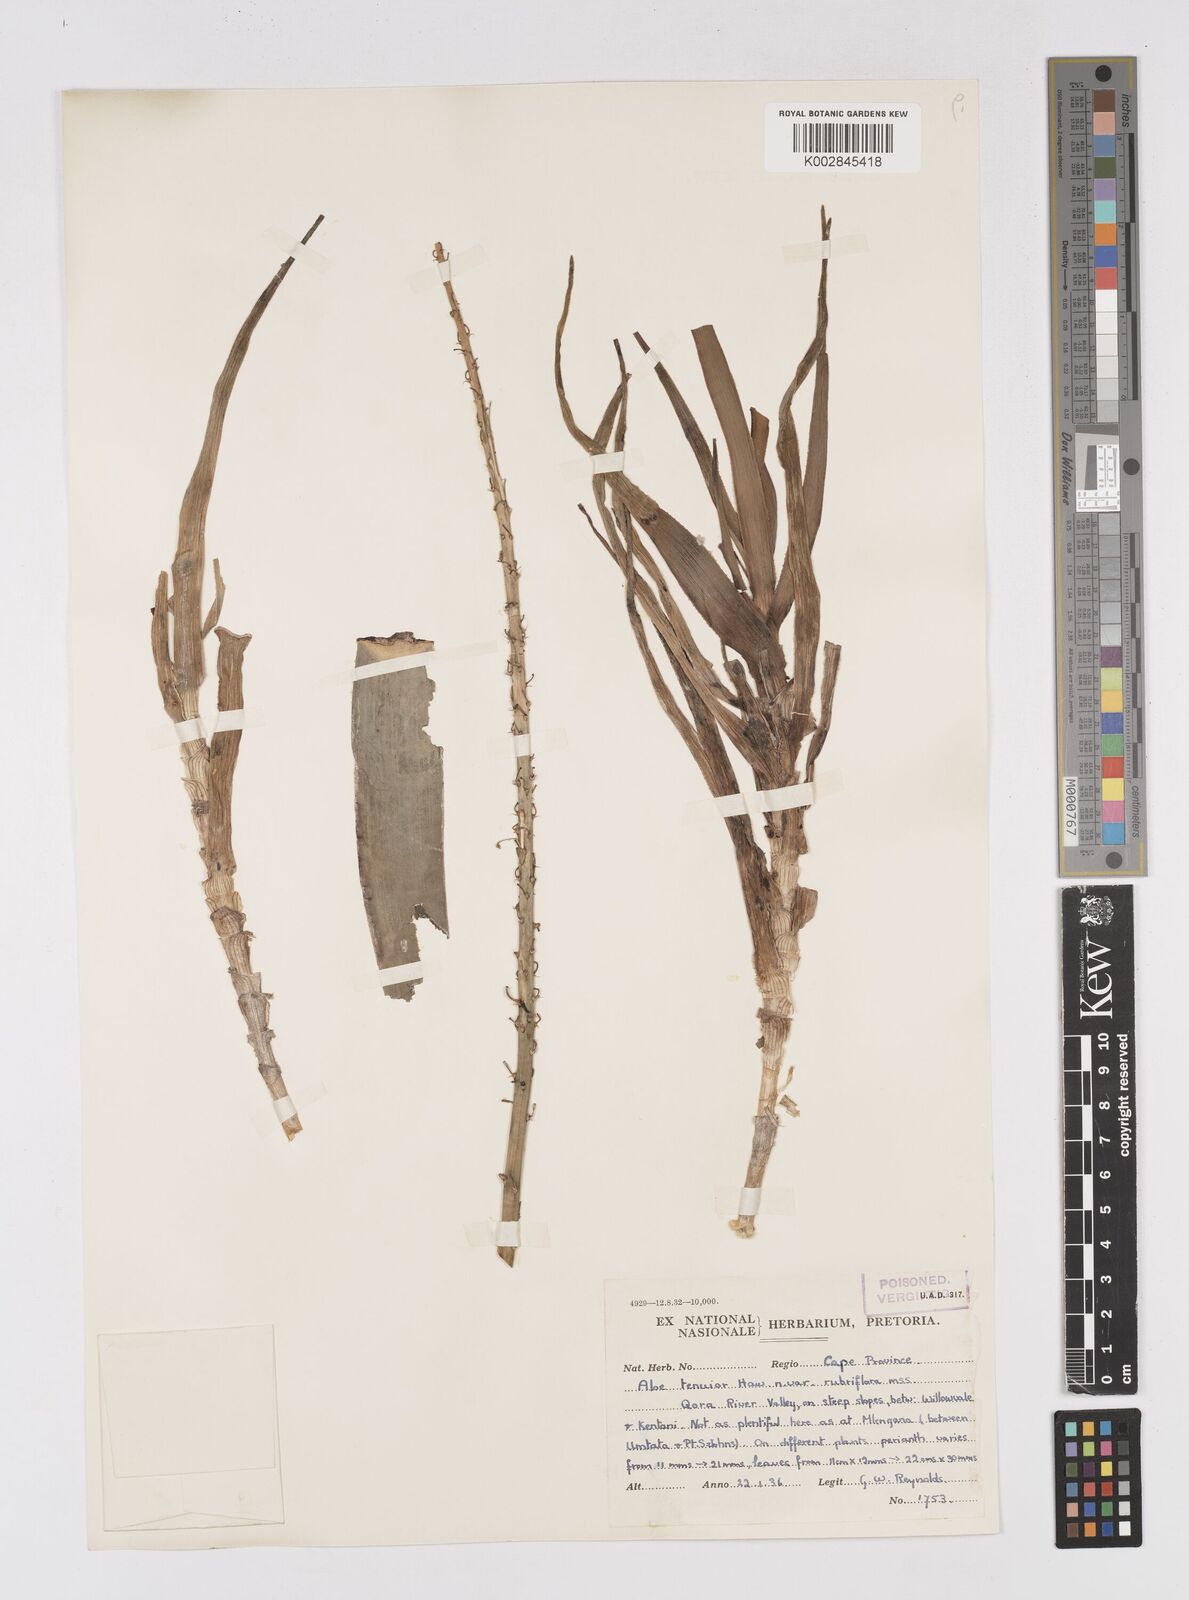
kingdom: Plantae
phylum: Tracheophyta
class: Liliopsida
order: Asparagales
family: Asphodelaceae
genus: Haworthiopsis
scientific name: Haworthiopsis attenuata
